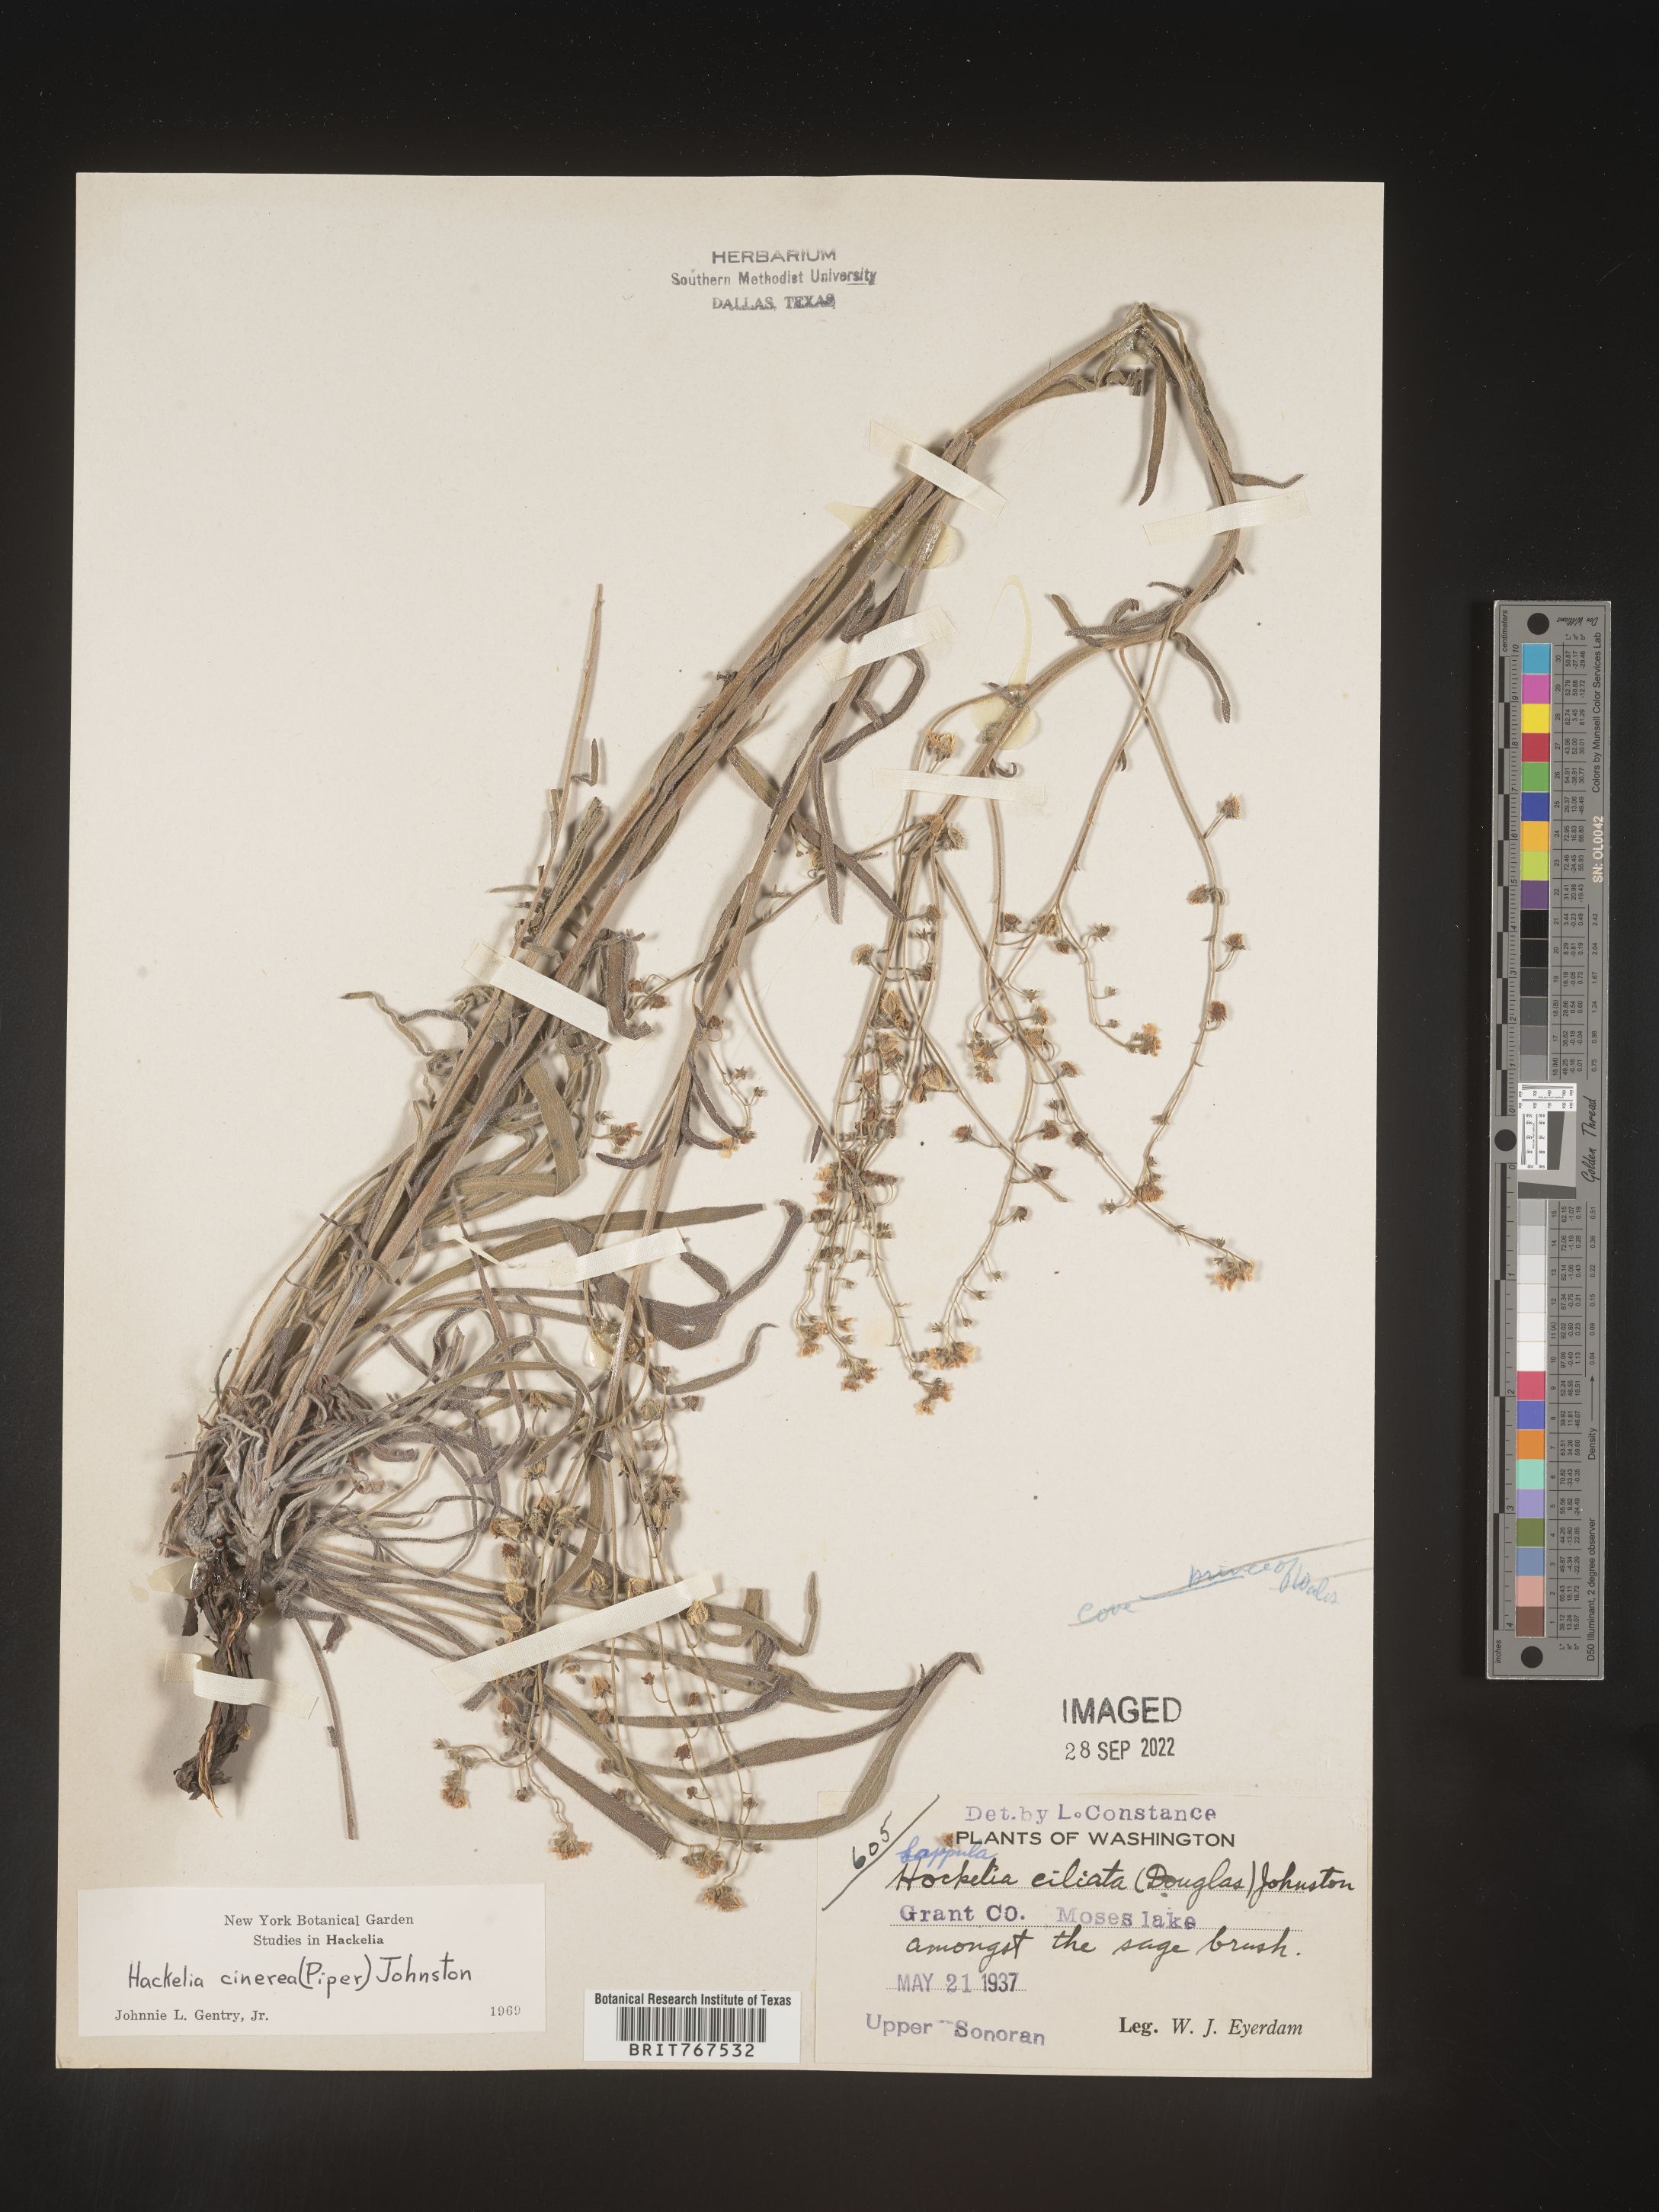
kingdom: Plantae
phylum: Tracheophyta
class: Magnoliopsida
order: Boraginales
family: Boraginaceae
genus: Hackelia
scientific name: Hackelia
